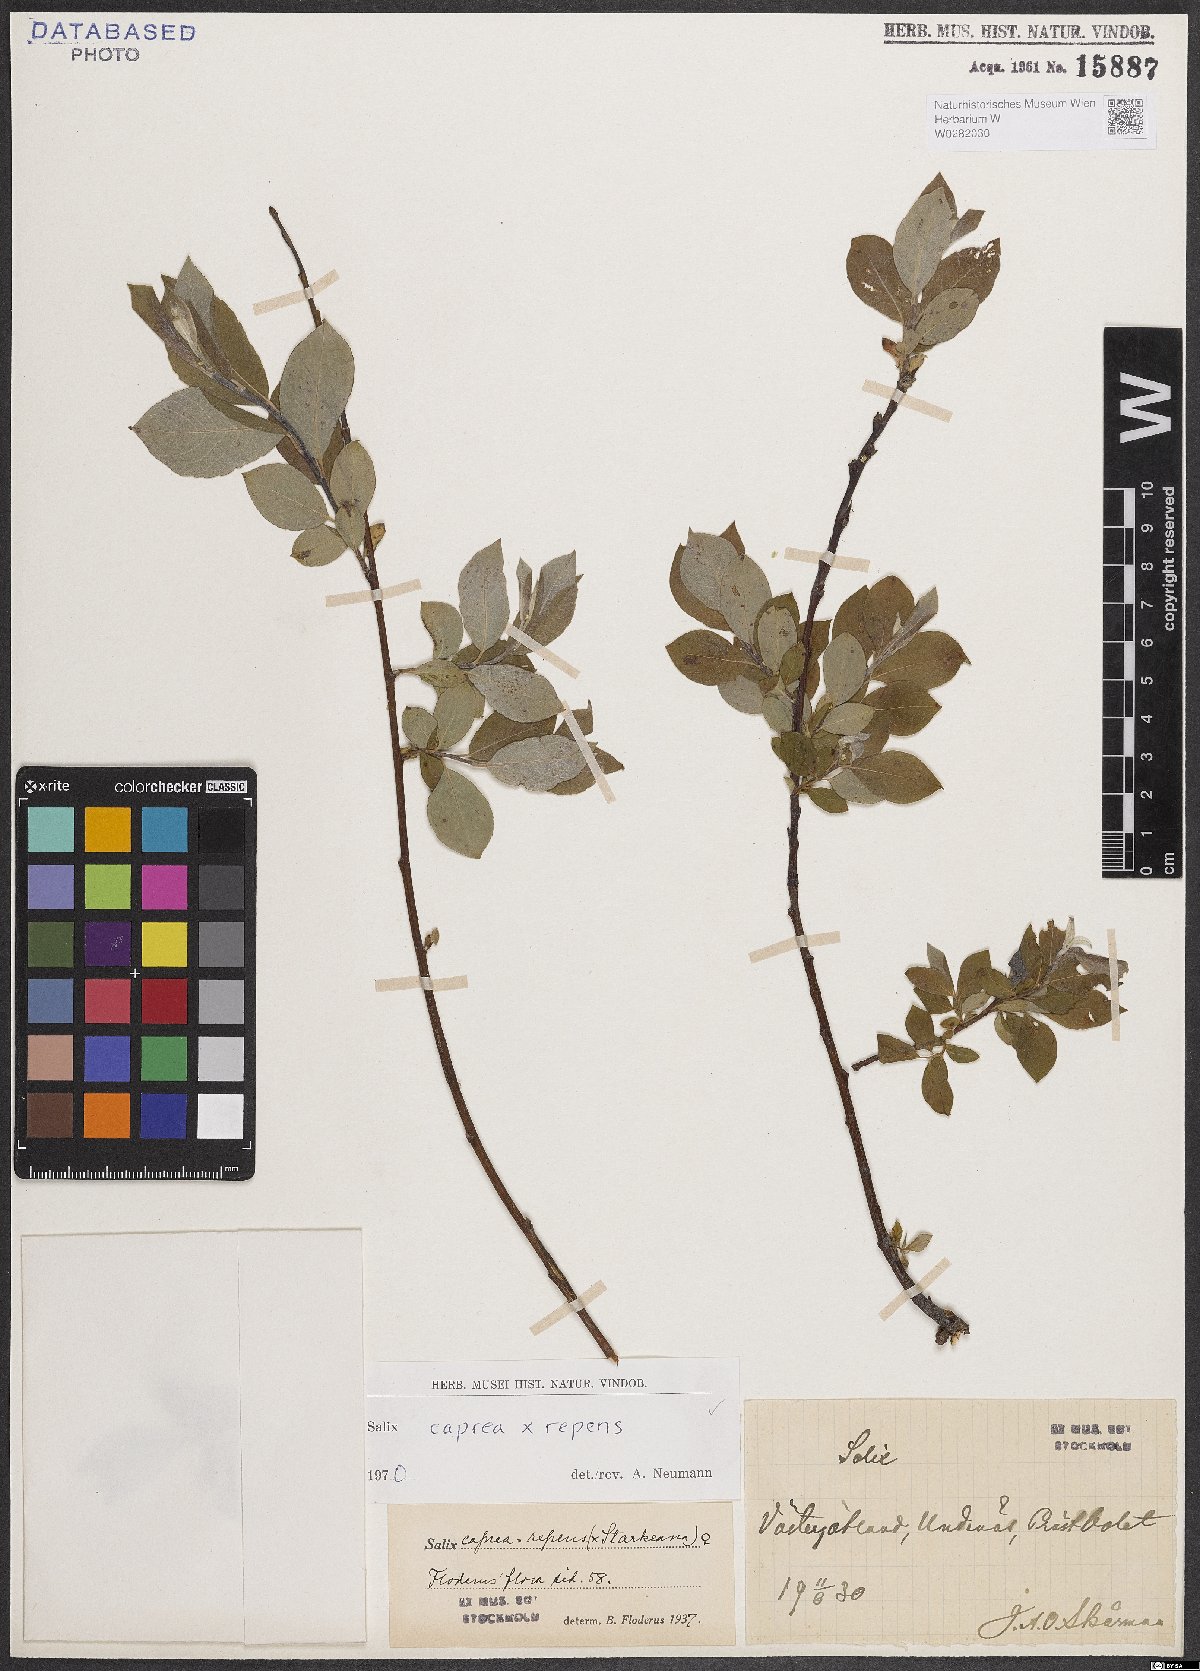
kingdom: Plantae
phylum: Tracheophyta
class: Magnoliopsida
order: Malpighiales
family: Salicaceae
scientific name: Salicaceae
